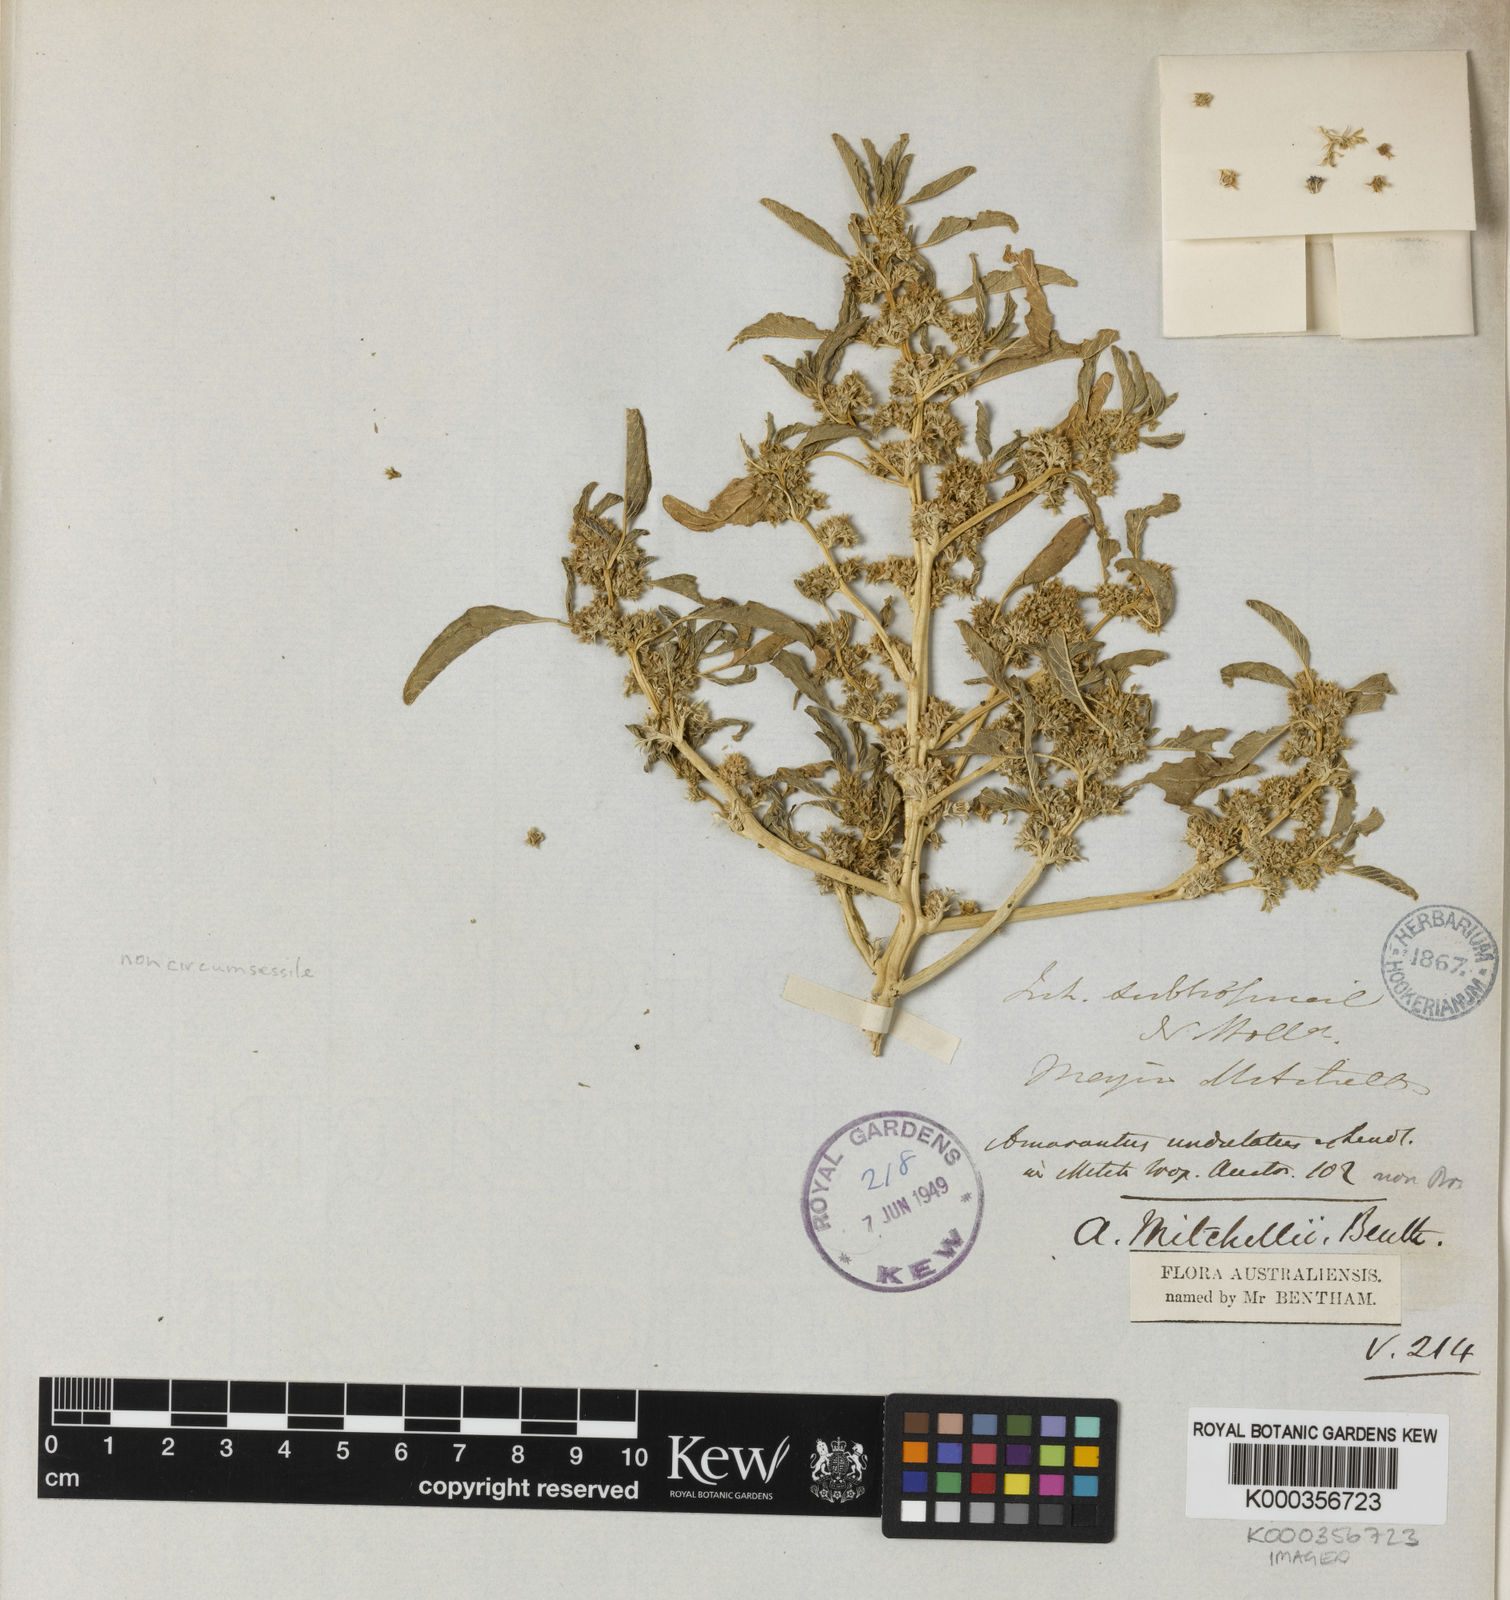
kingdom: Plantae
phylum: Tracheophyta
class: Magnoliopsida
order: Caryophyllales
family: Amaranthaceae
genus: Amaranthus
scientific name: Amaranthus mitchellii
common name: Mitchell's amaranth
